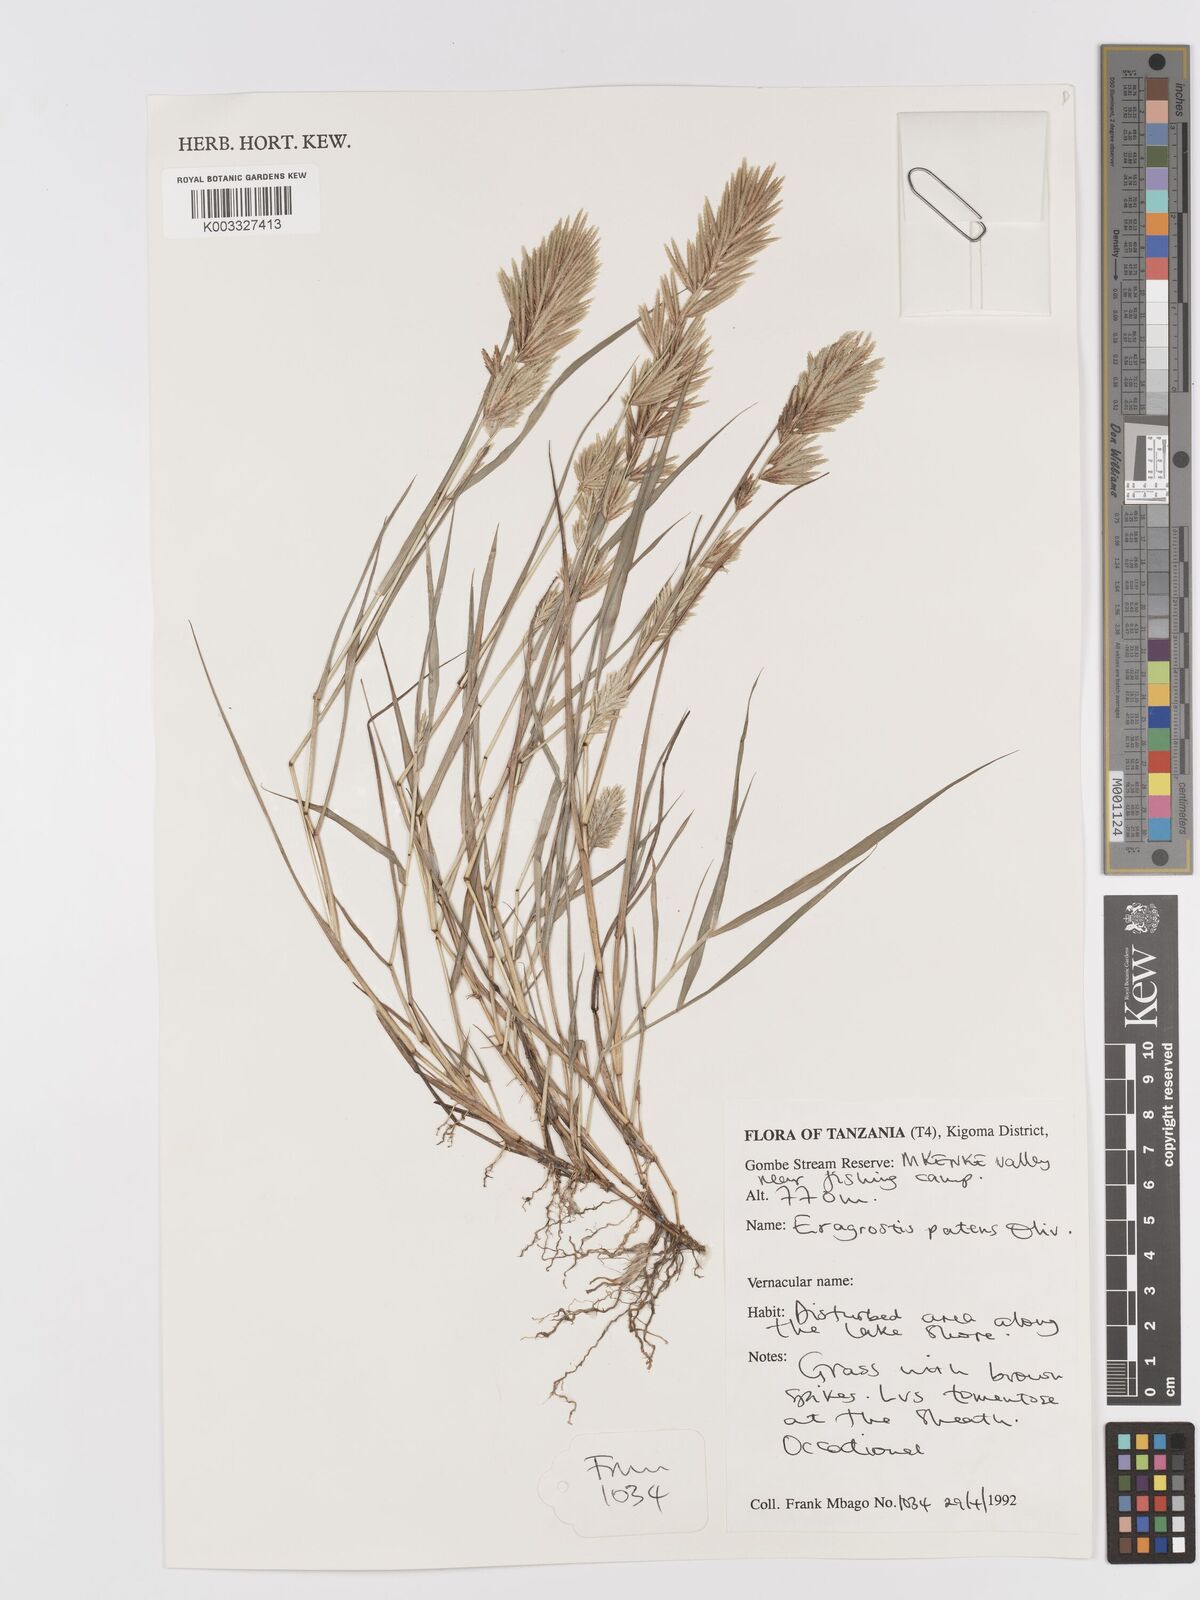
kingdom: Plantae
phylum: Tracheophyta
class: Liliopsida
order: Poales
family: Poaceae
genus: Eragrostis
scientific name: Eragrostis patens
